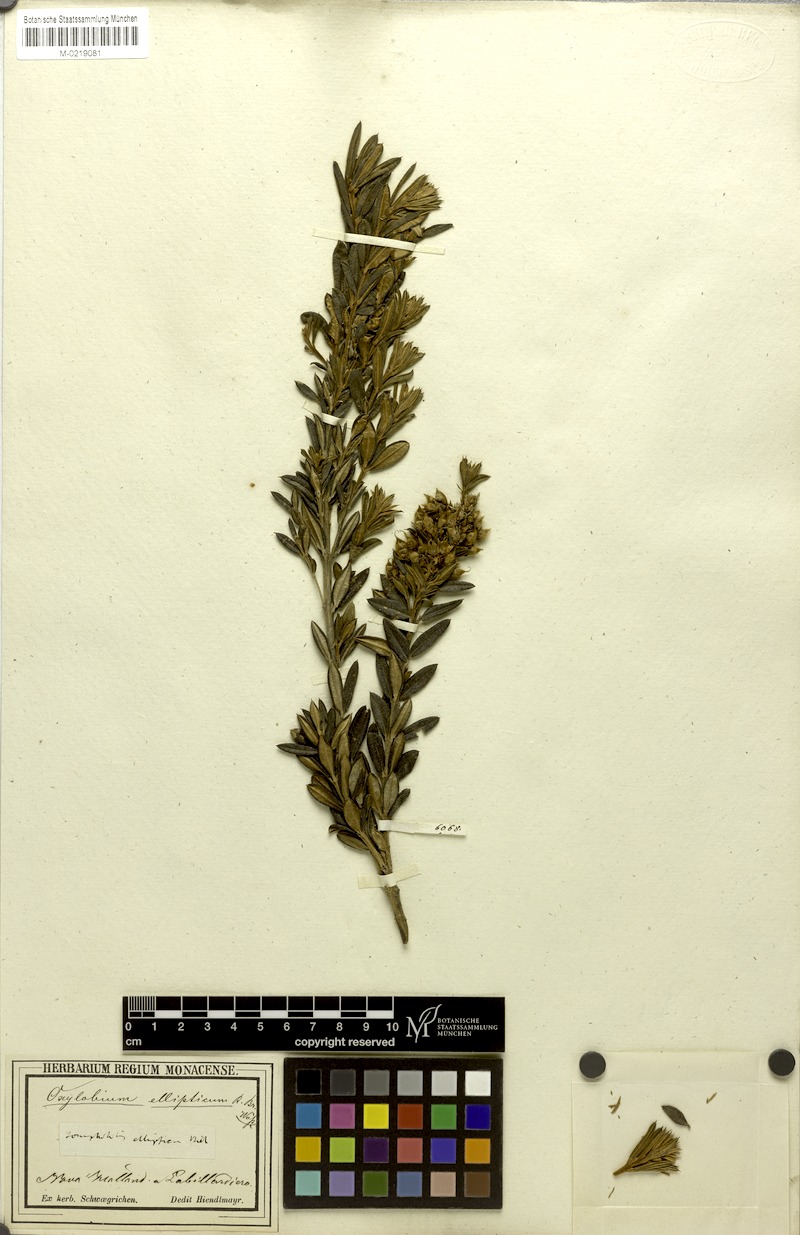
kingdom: Plantae
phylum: Tracheophyta
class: Magnoliopsida
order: Fabales
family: Fabaceae
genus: Oxylobium
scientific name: Oxylobium ellipticum
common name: Golden shaggy-pea
